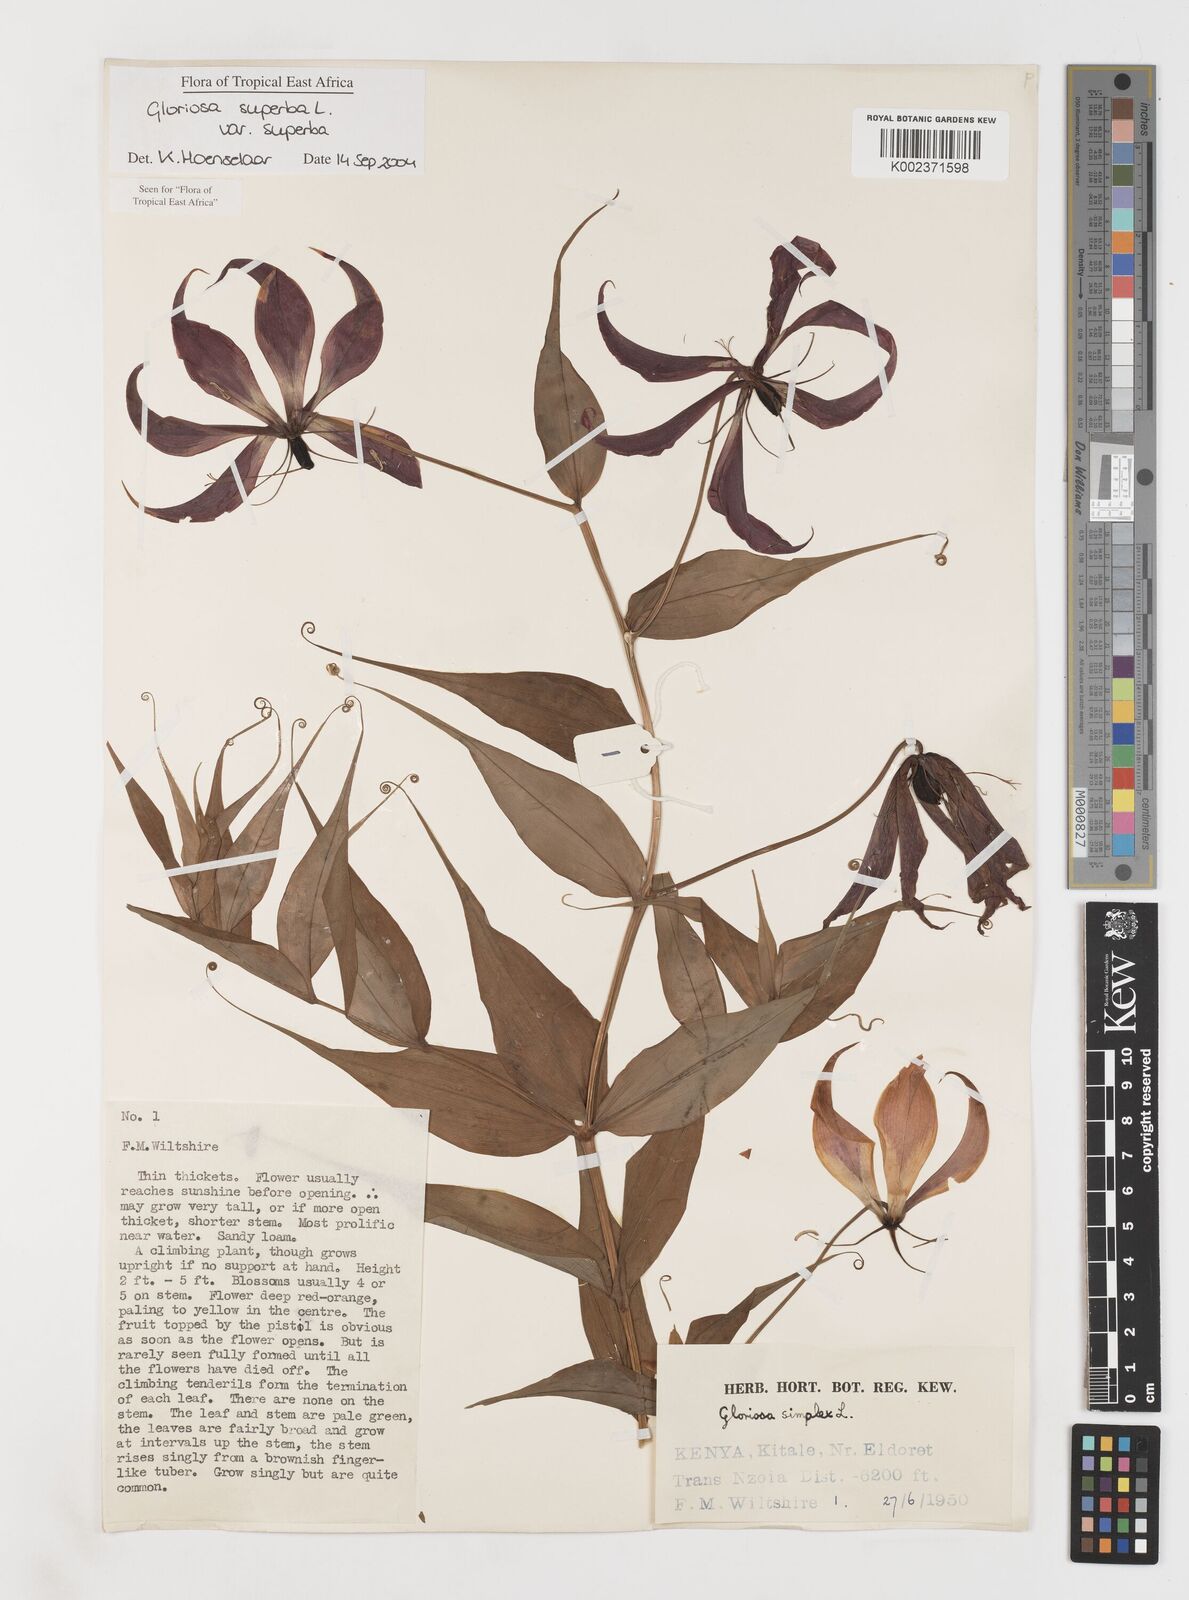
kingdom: Plantae
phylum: Tracheophyta
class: Liliopsida
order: Liliales
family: Colchicaceae
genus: Gloriosa
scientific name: Gloriosa simplex
